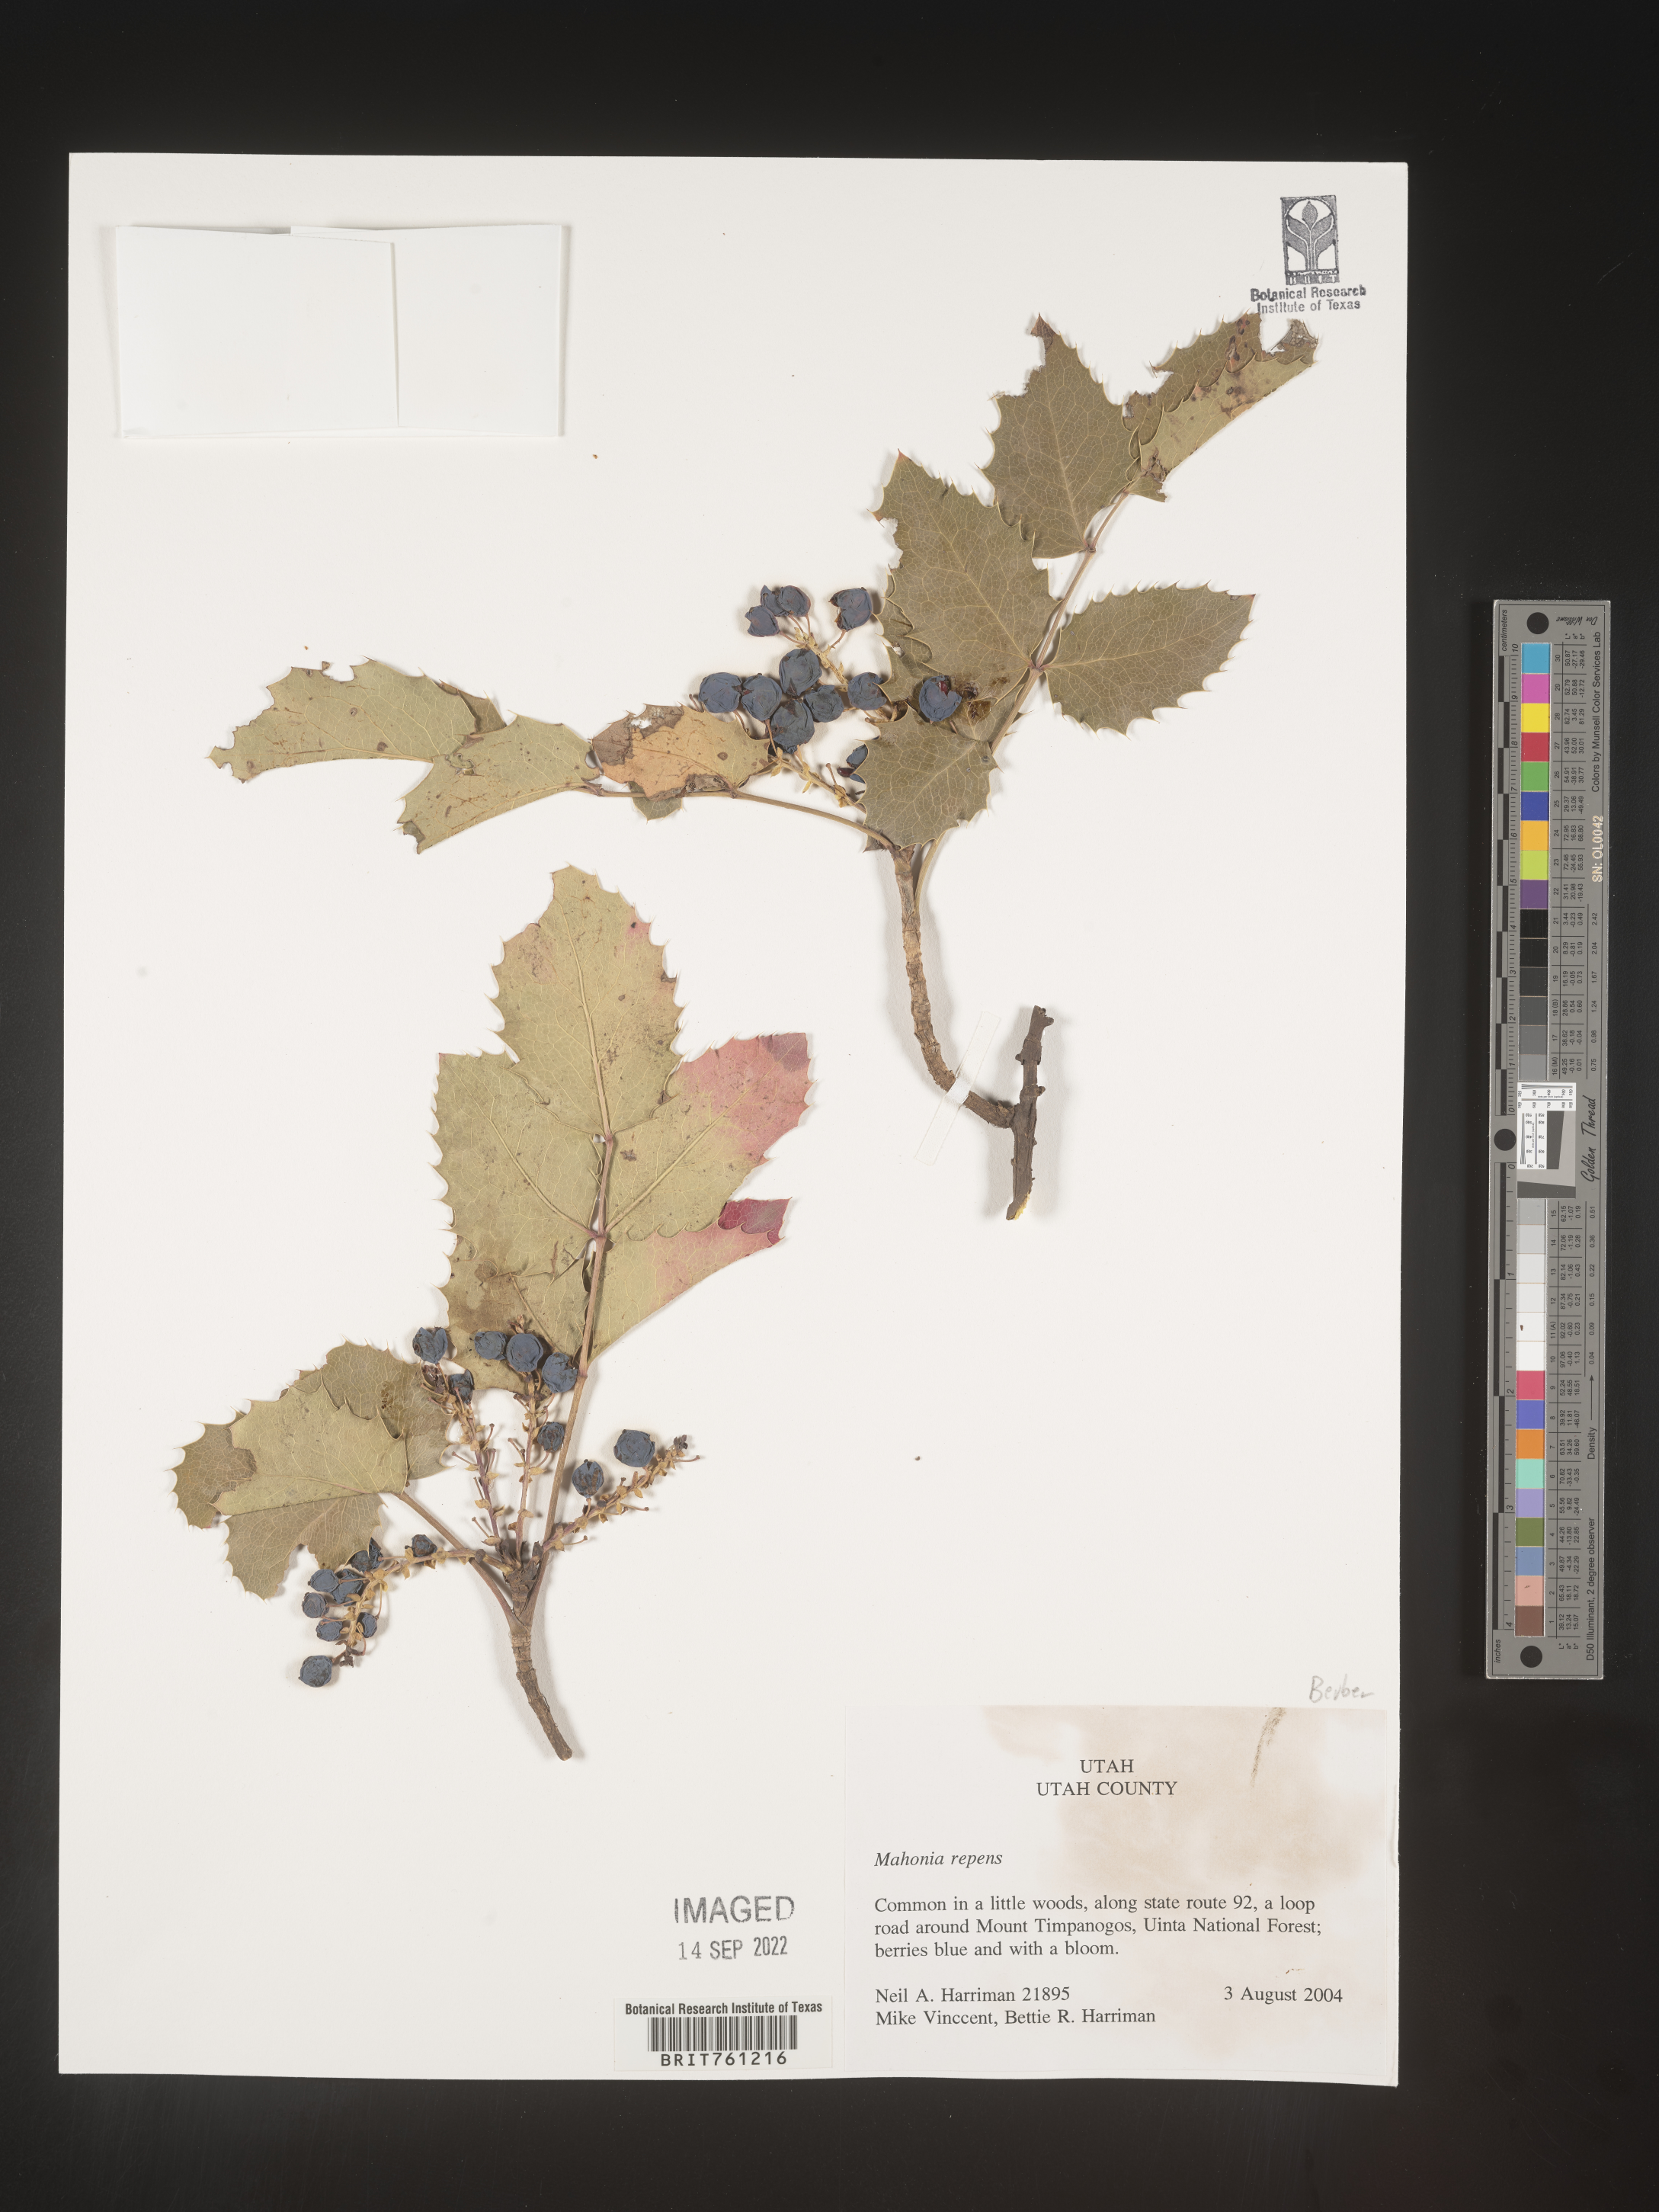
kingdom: Plantae
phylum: Tracheophyta
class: Magnoliopsida
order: Ranunculales
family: Berberidaceae
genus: Mahonia
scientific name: Mahonia repens
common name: Creeping oregon-grape
